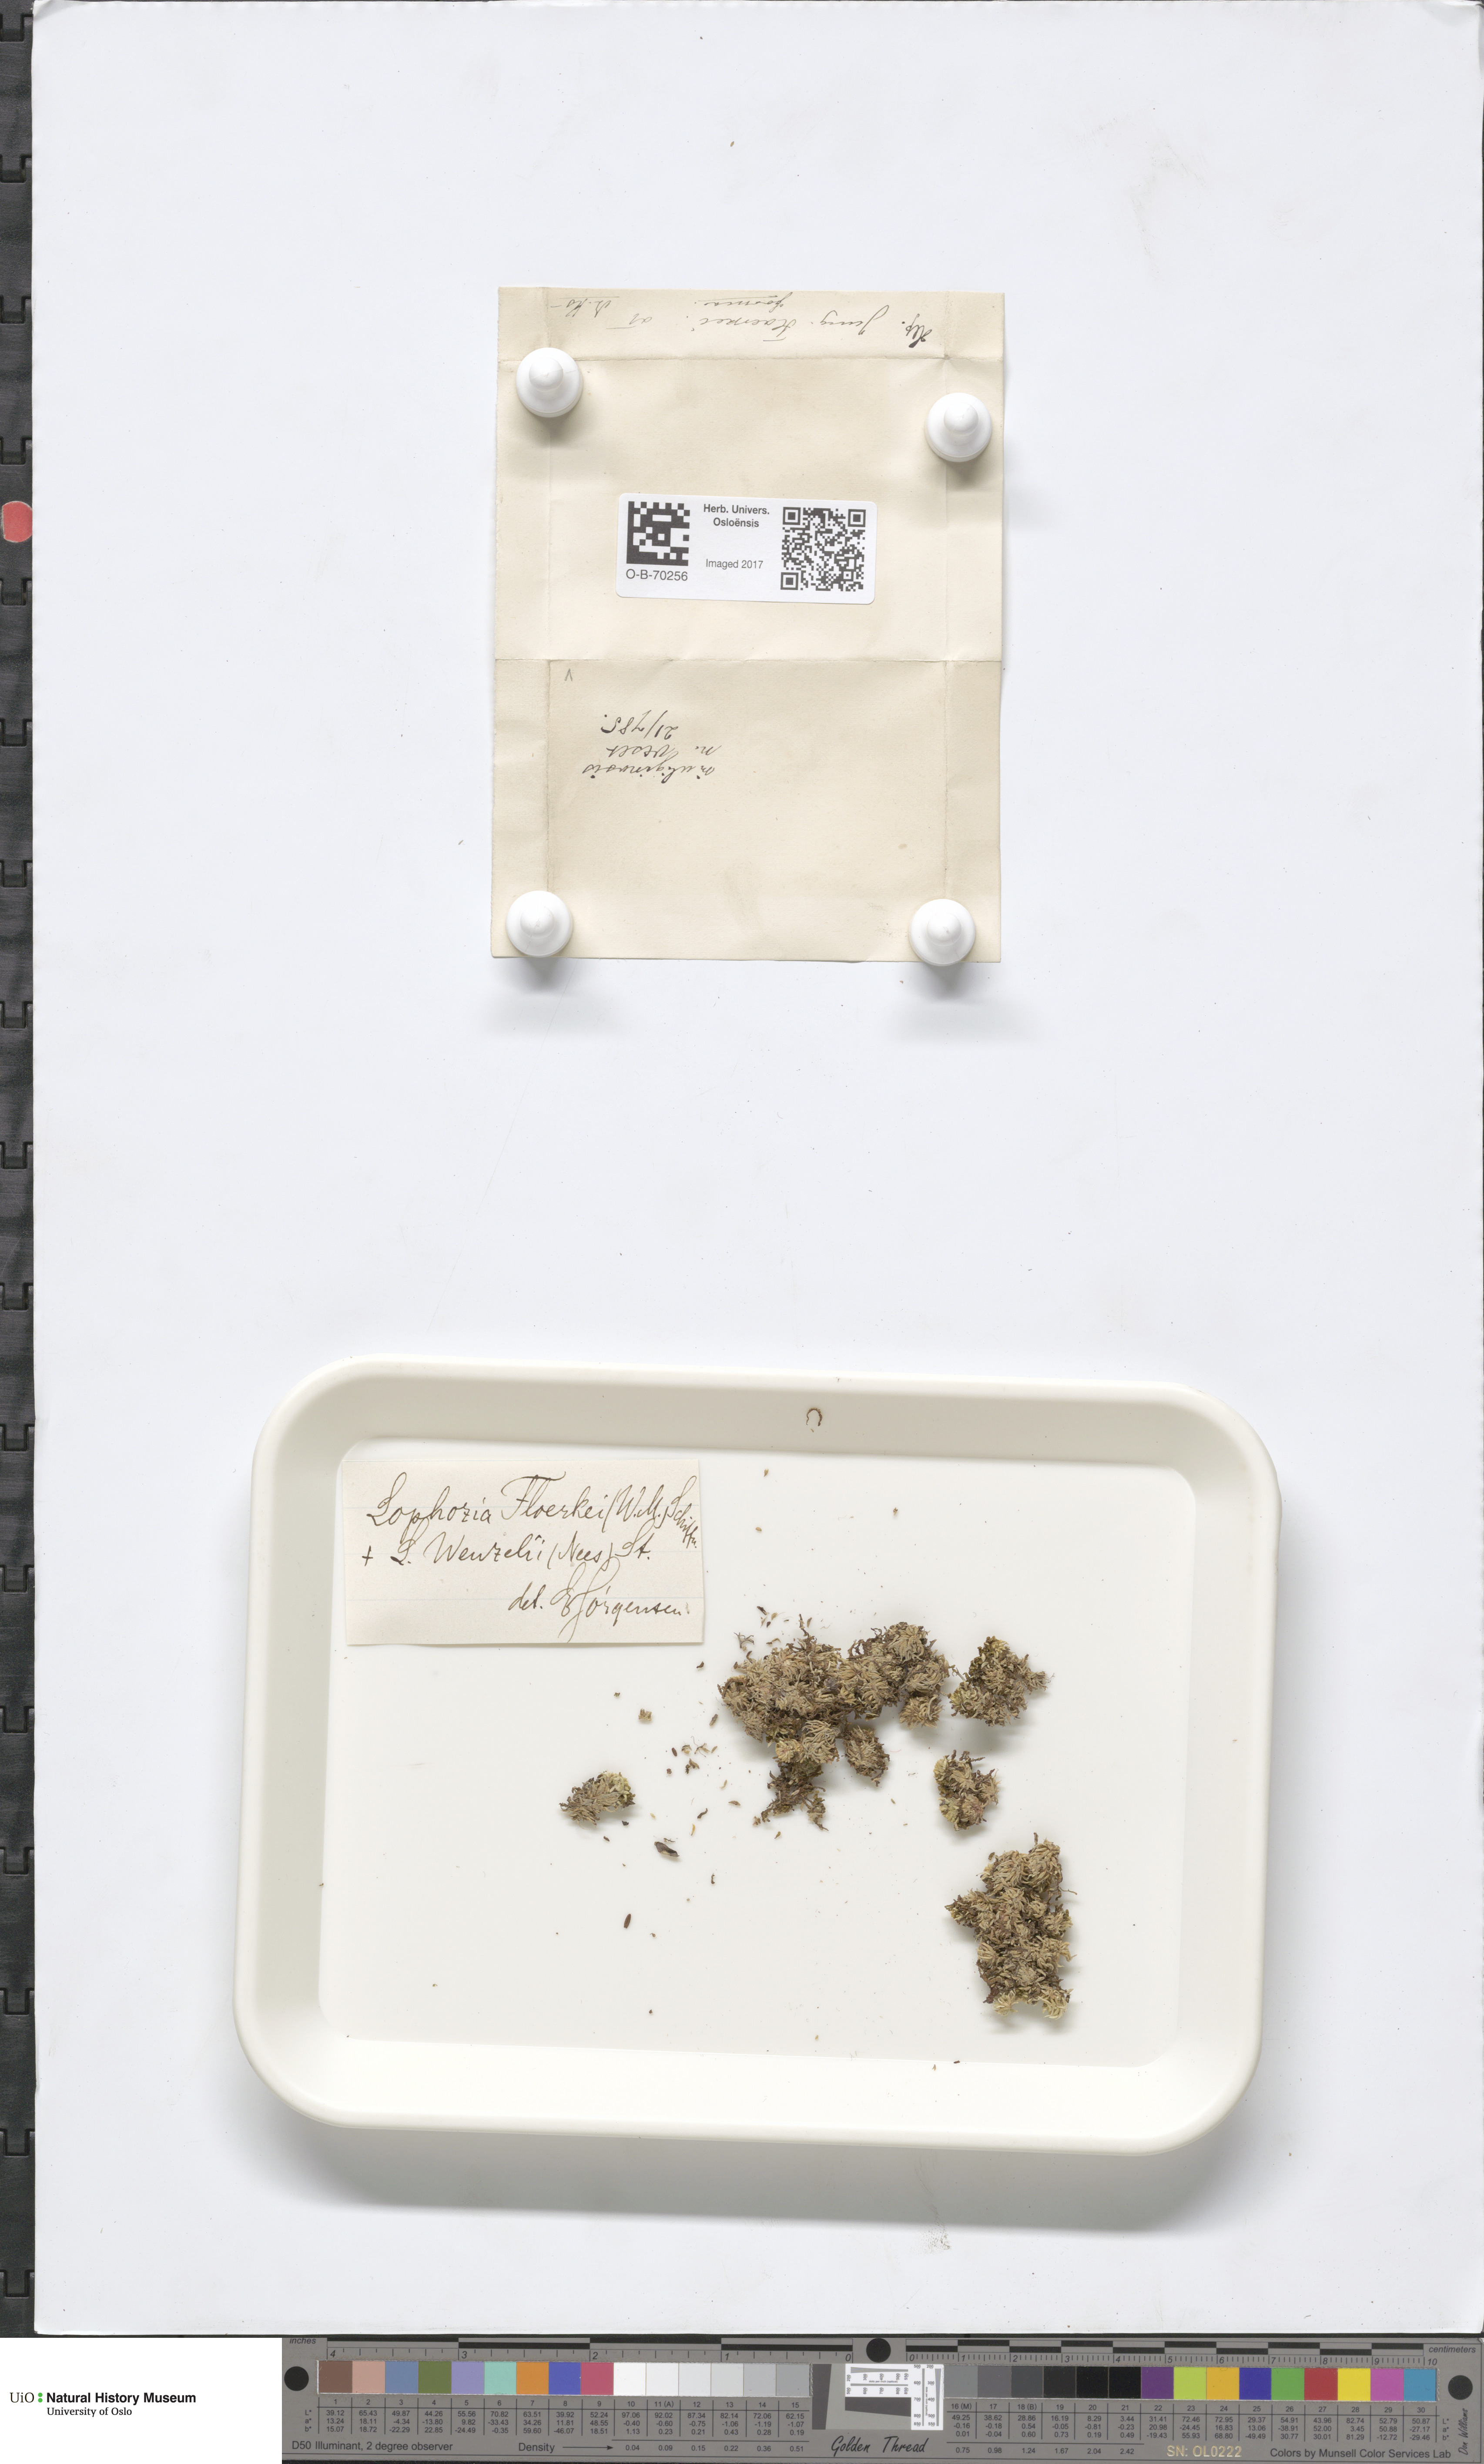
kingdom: Plantae
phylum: Marchantiophyta
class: Jungermanniopsida
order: Jungermanniales
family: Anastrophyllaceae
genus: Neoorthocaulis
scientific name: Neoorthocaulis floerkei
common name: Floerke's barbilophozia
